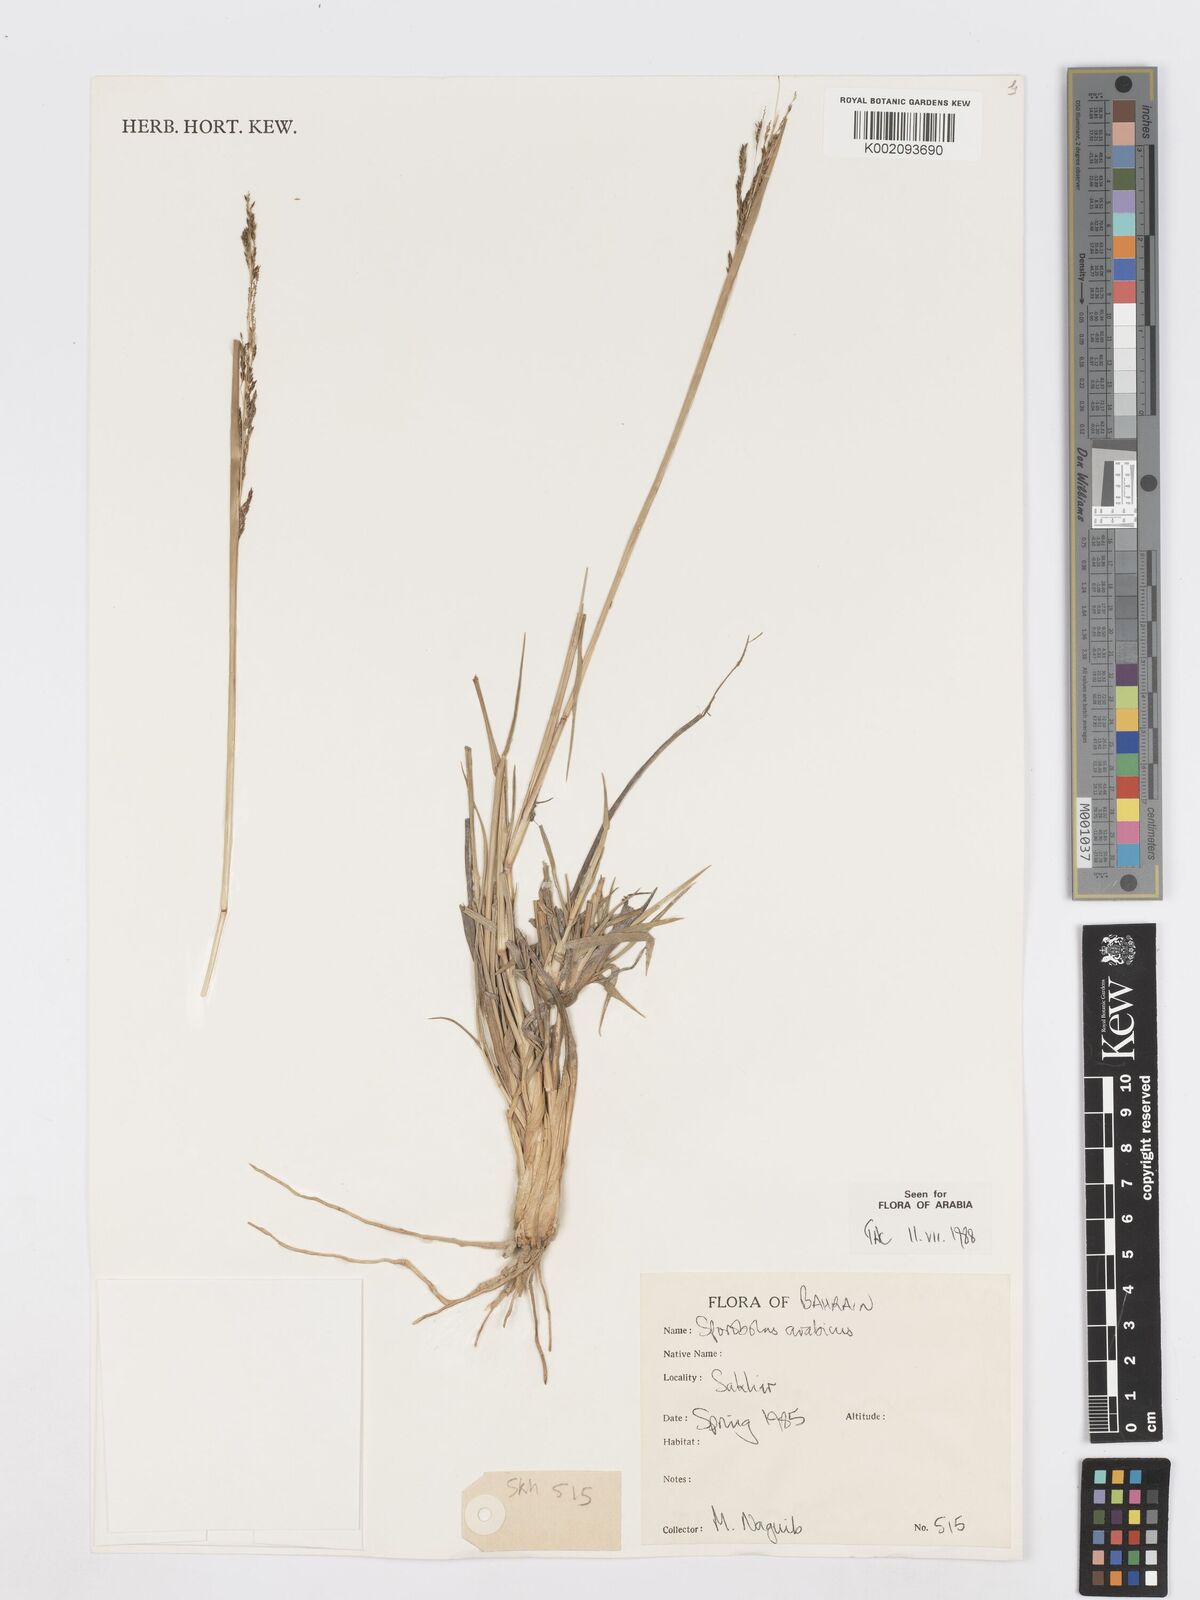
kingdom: Plantae
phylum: Tracheophyta
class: Liliopsida
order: Poales
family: Poaceae
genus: Sporobolus
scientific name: Sporobolus ioclados
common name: Pan dropseed
